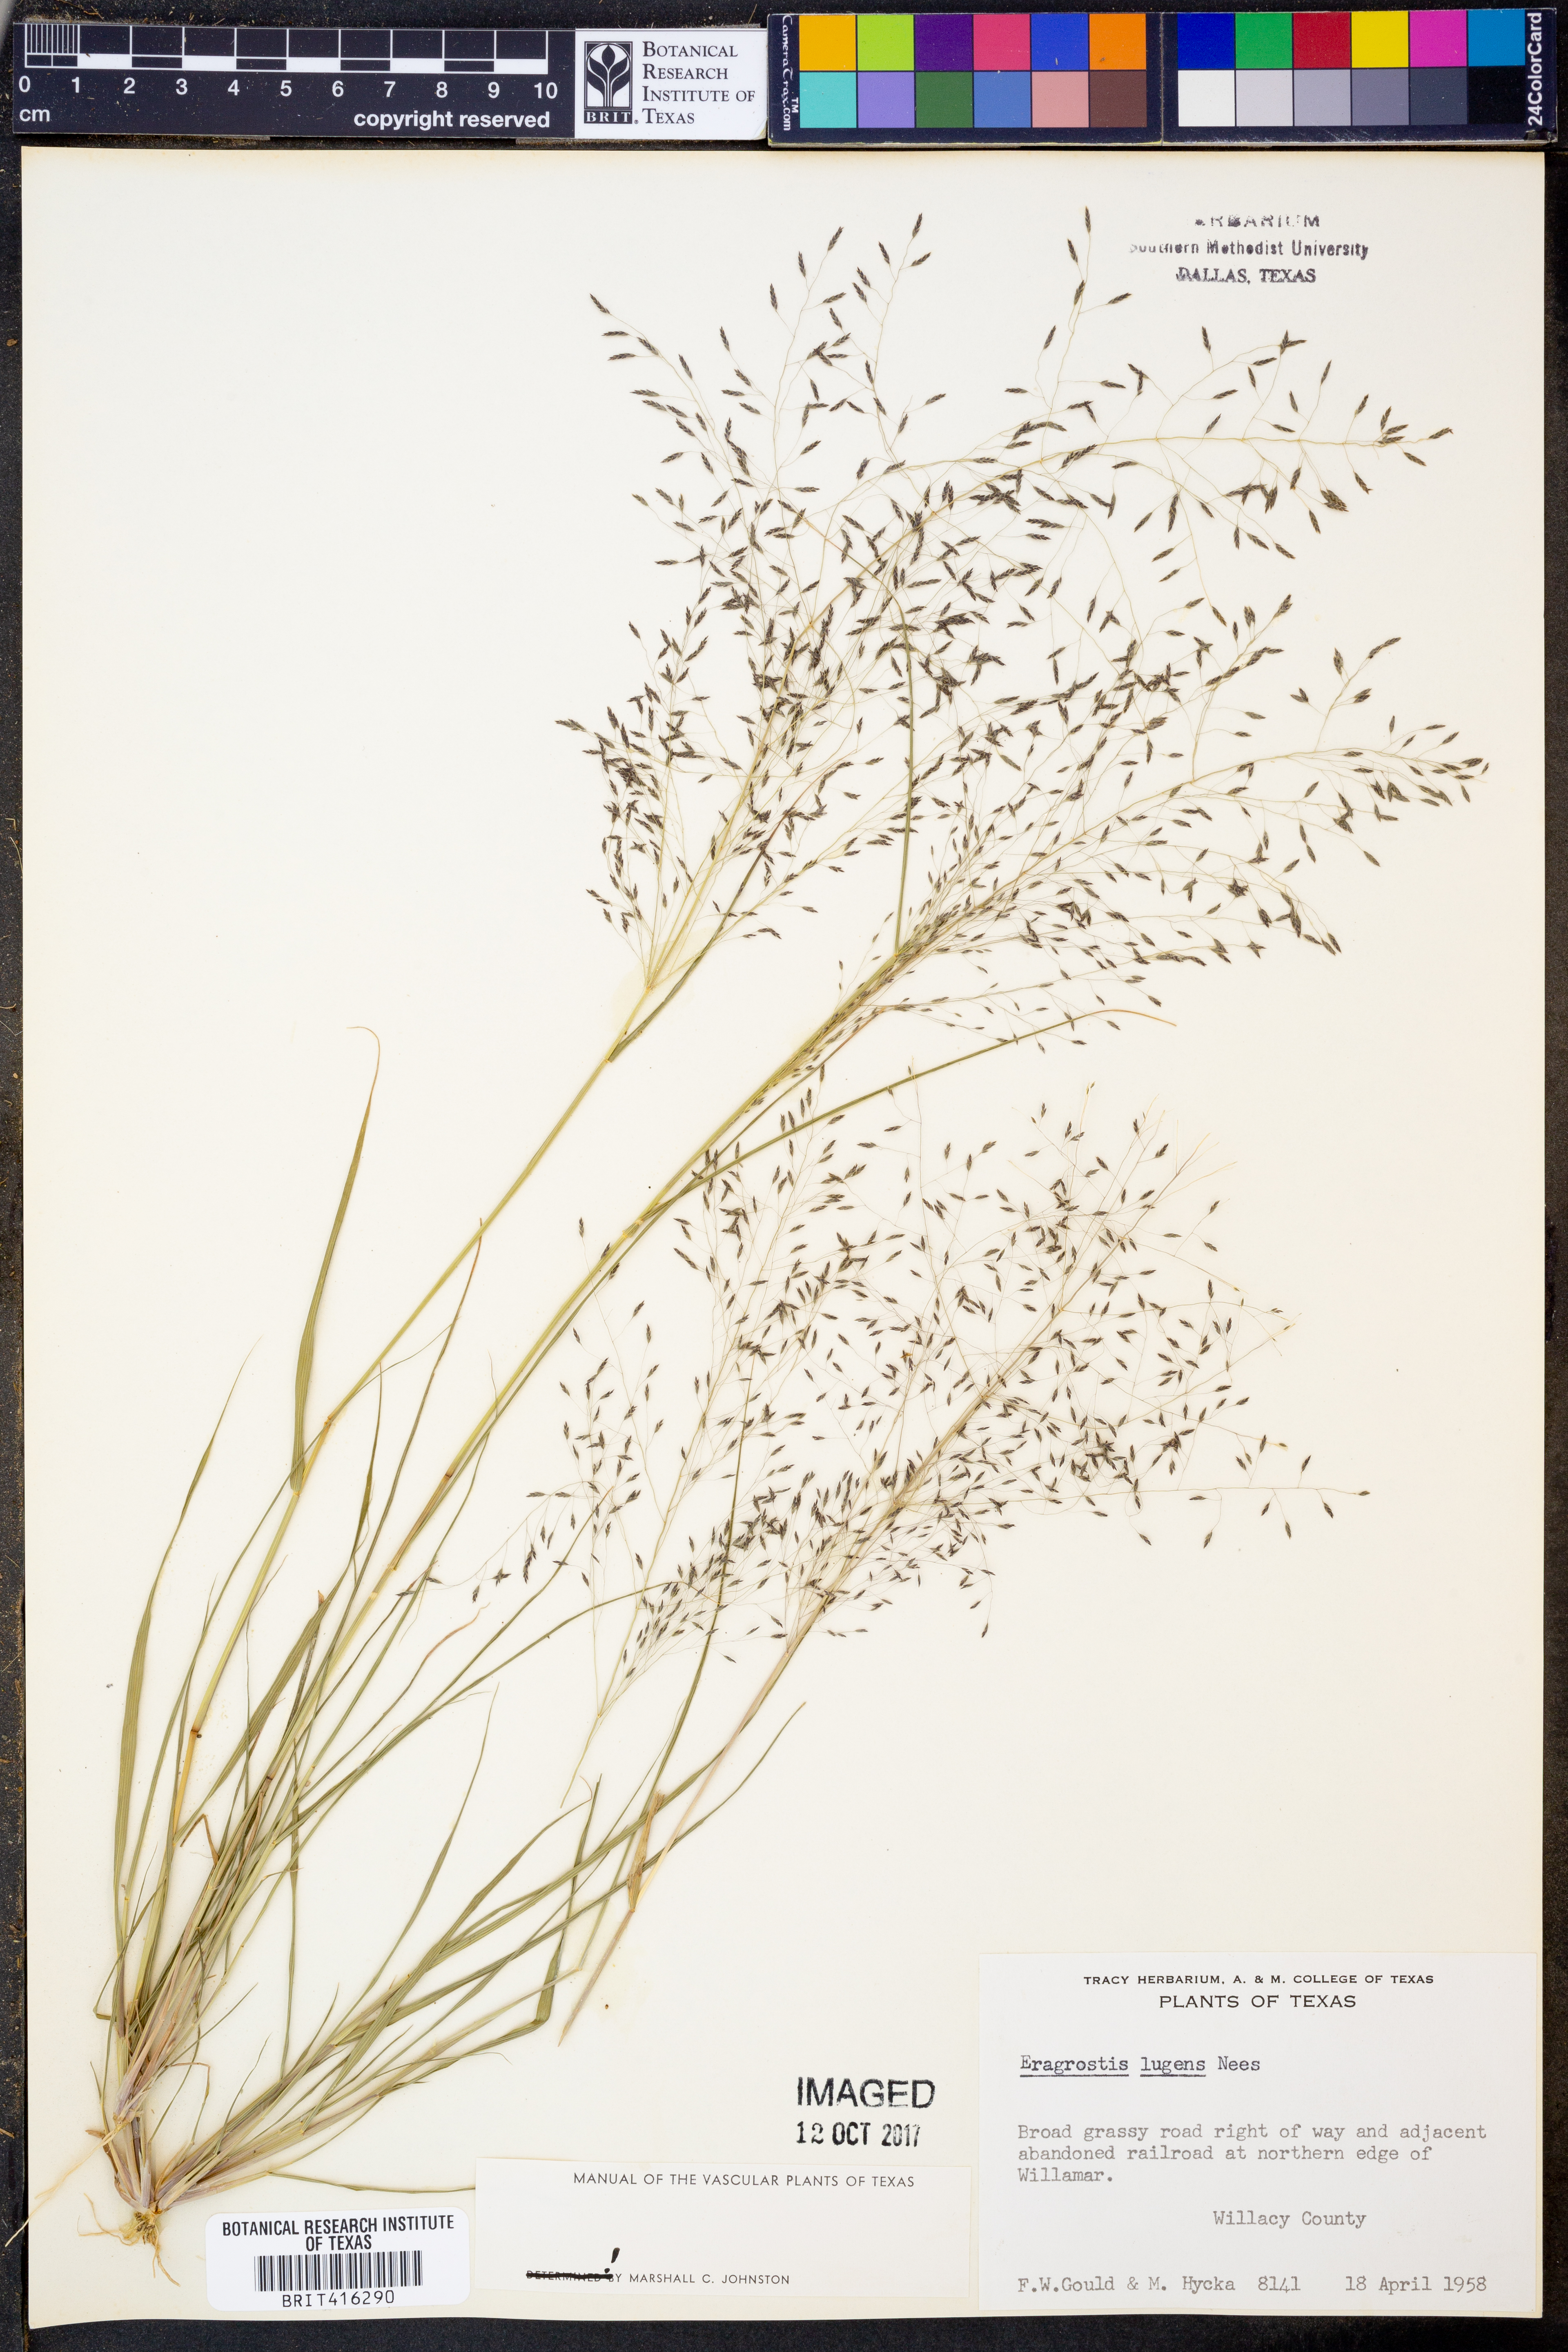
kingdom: Plantae
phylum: Tracheophyta
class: Liliopsida
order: Poales
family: Poaceae
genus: Eragrostis
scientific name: Eragrostis capillaris
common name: Hair-like lovegrass
